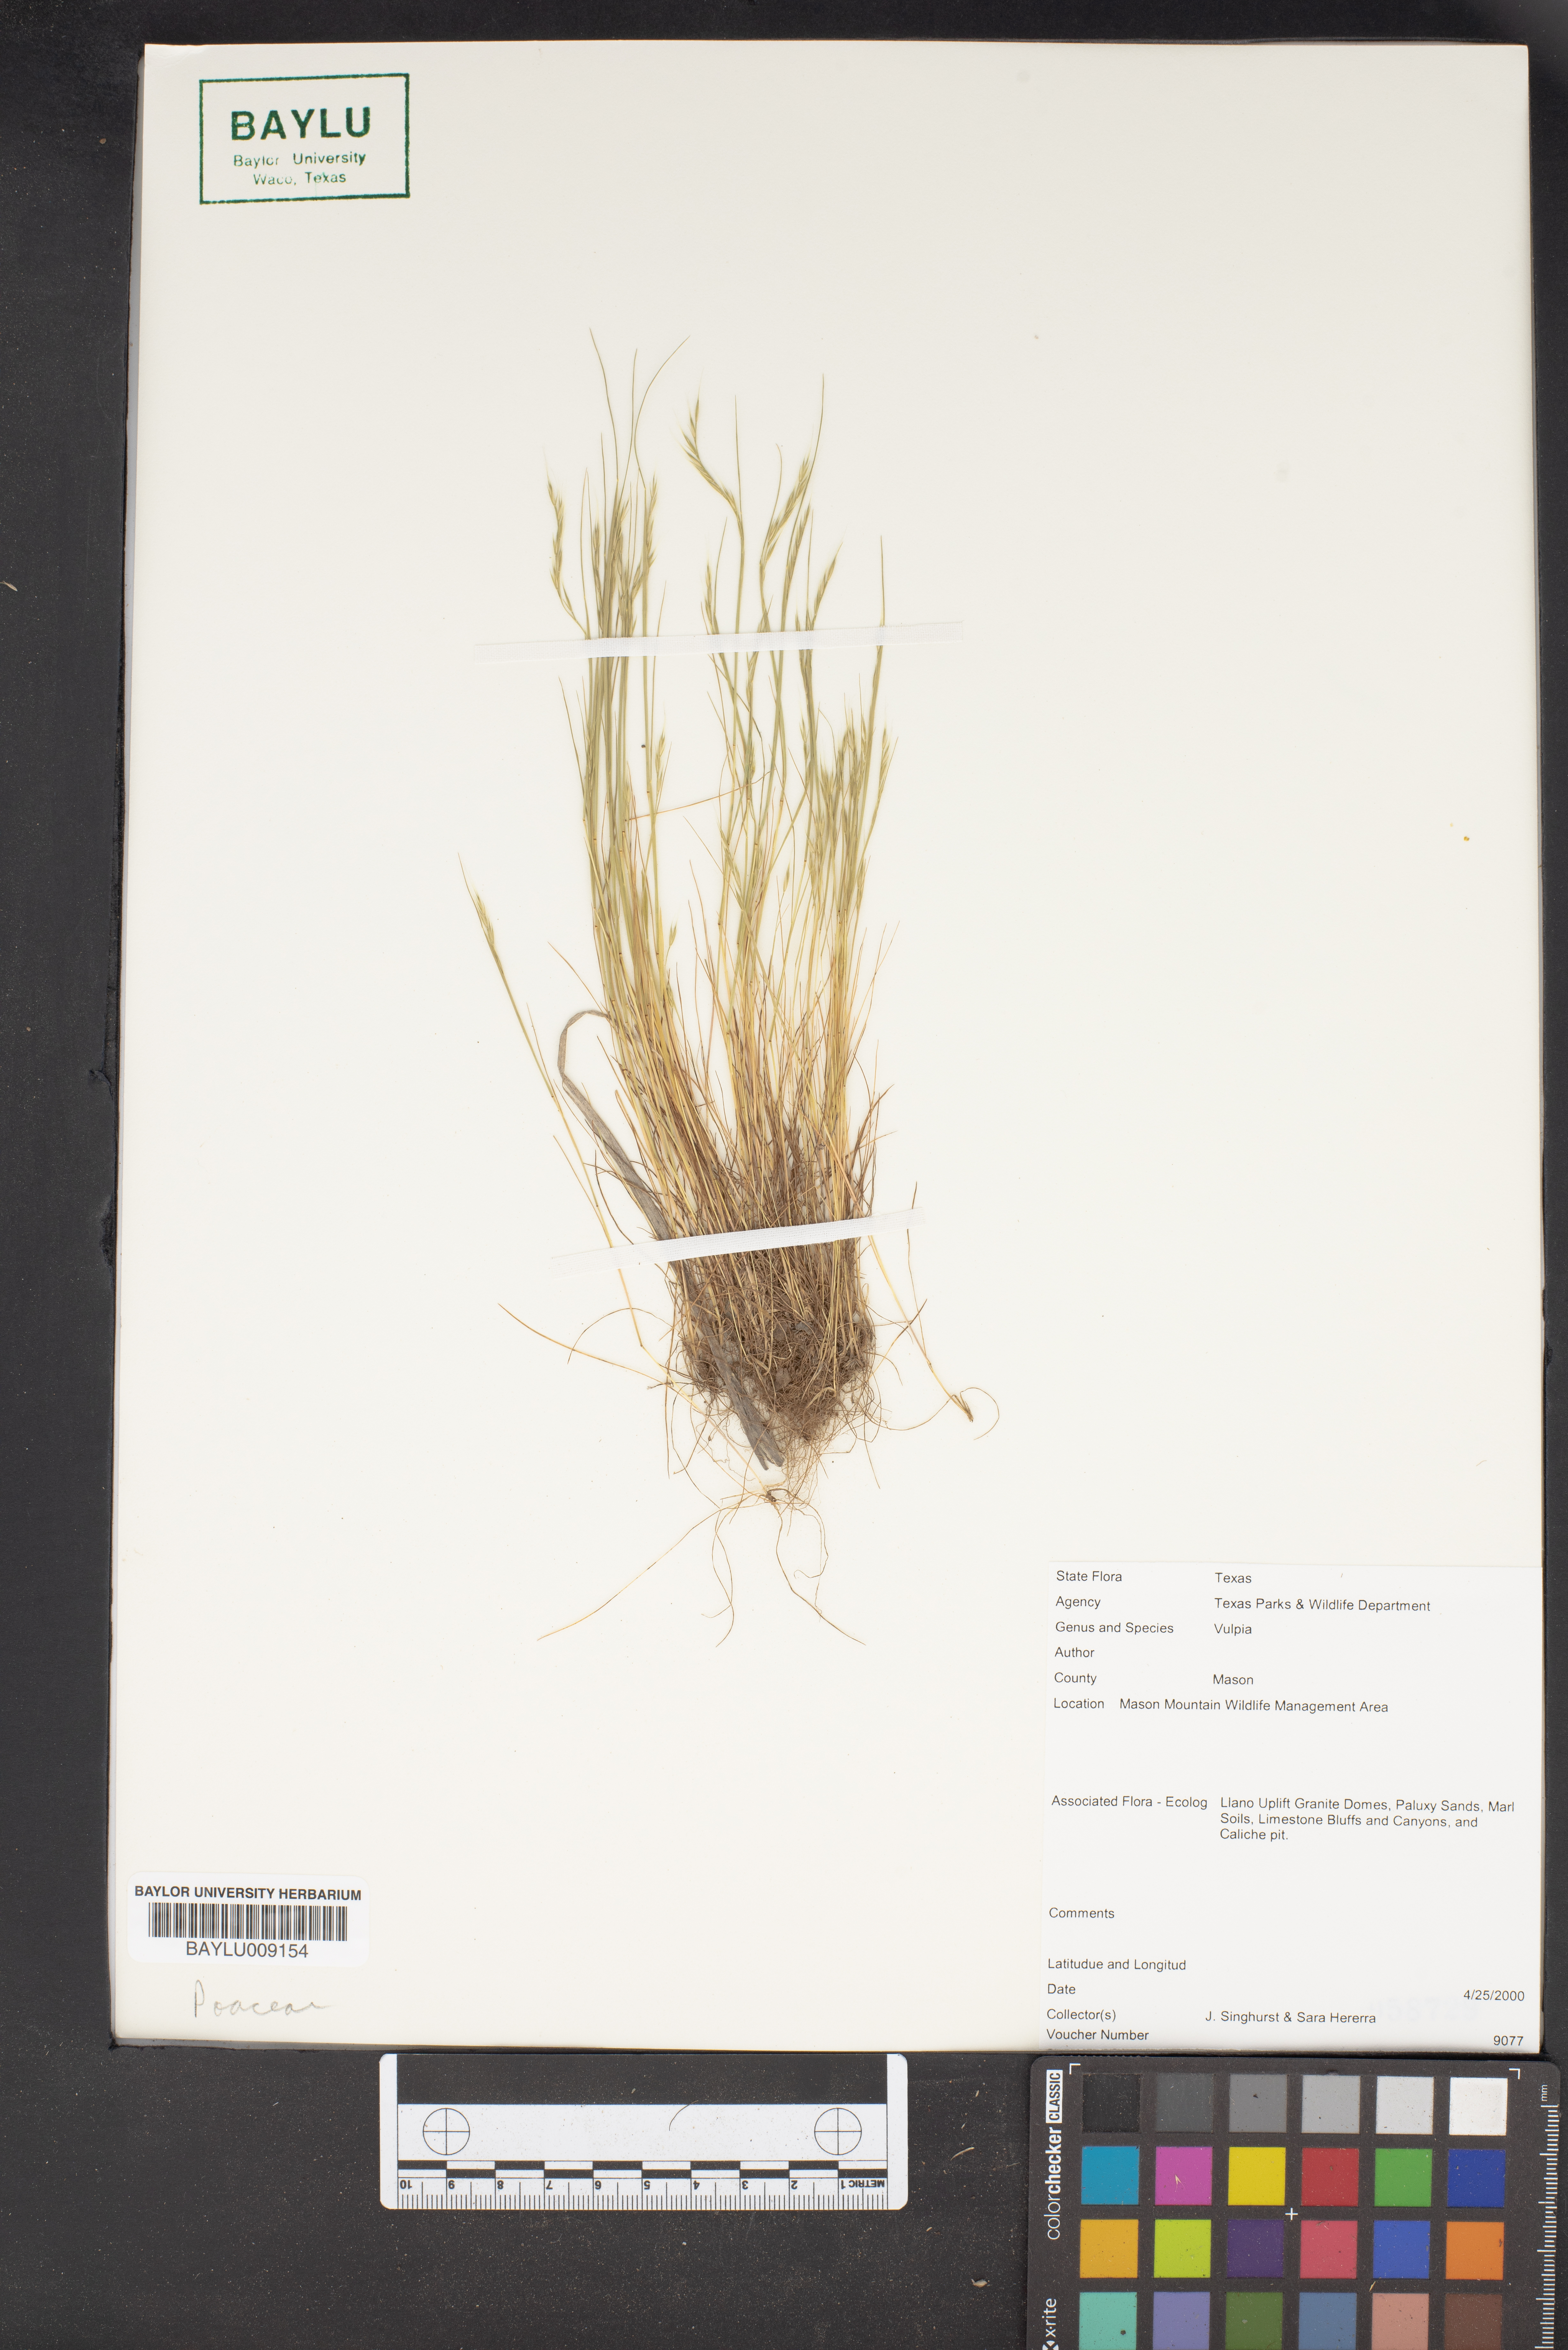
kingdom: Plantae
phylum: Tracheophyta
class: Liliopsida
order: Poales
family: Poaceae
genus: Festuca
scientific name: Festuca
